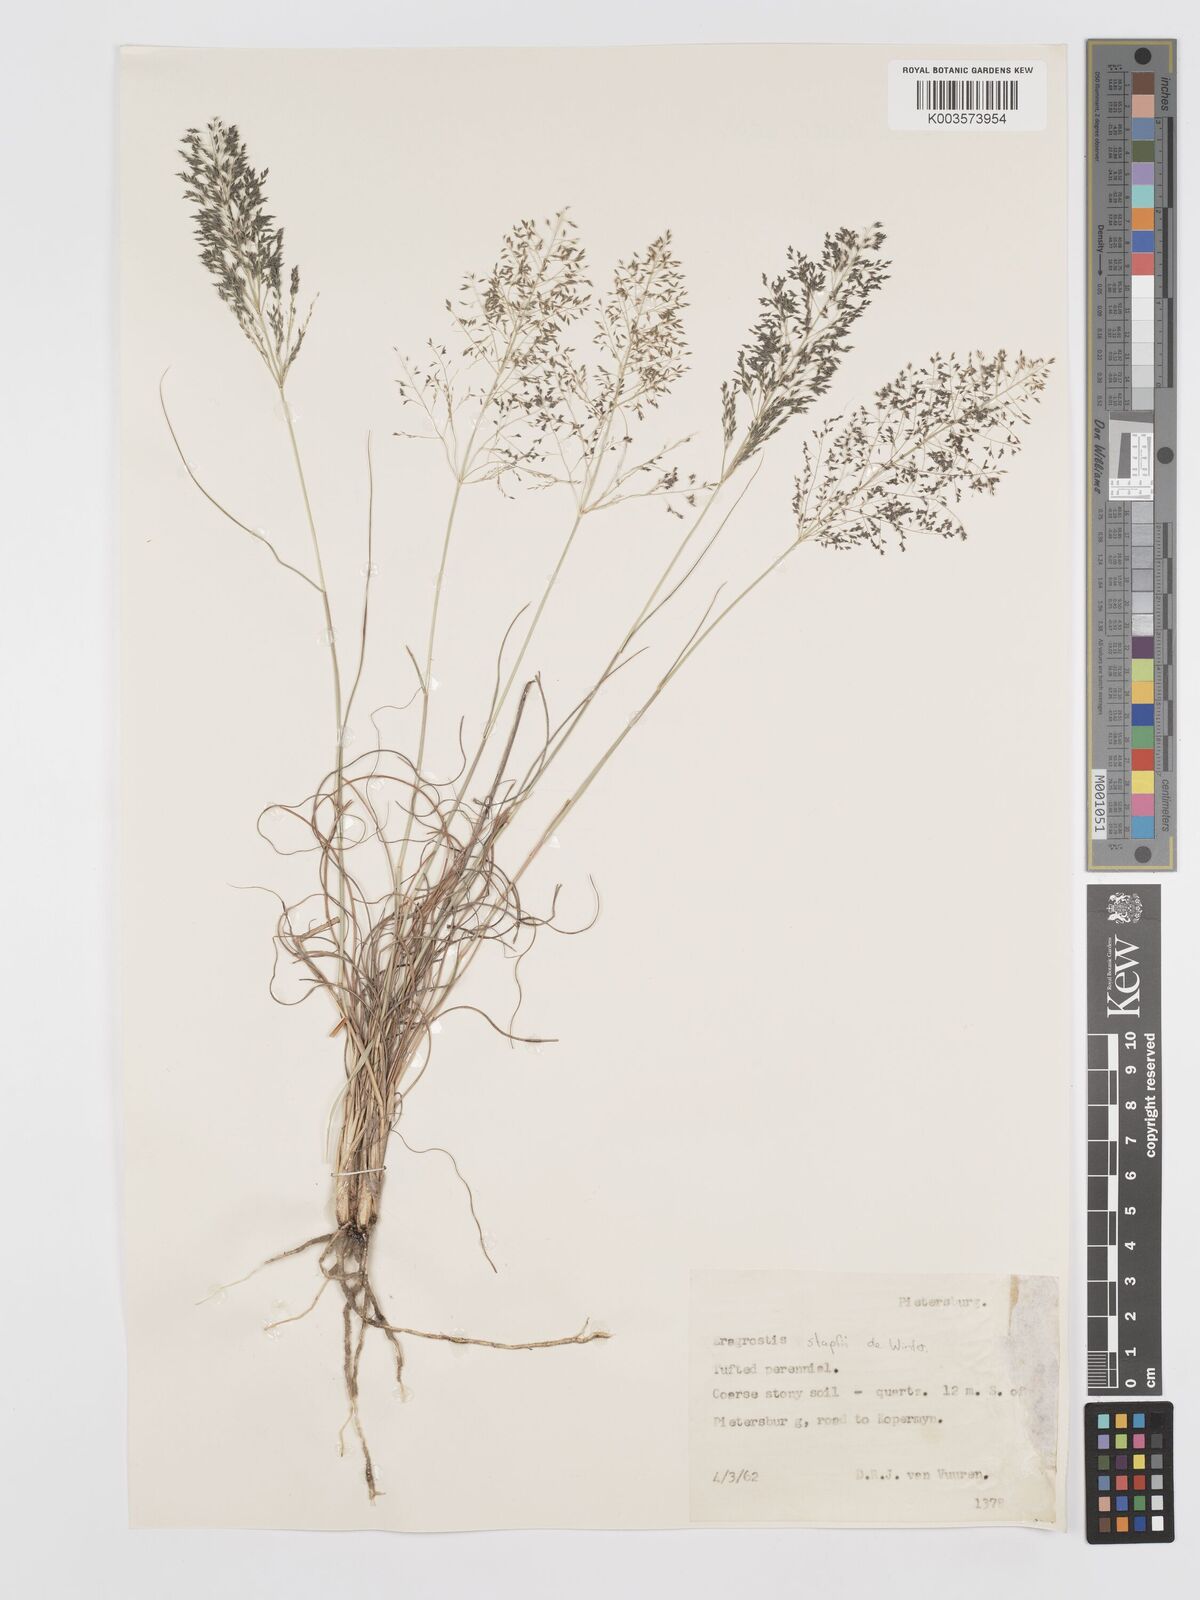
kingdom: Plantae
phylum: Tracheophyta
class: Liliopsida
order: Poales
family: Poaceae
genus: Eragrostis
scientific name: Eragrostis stapfii
